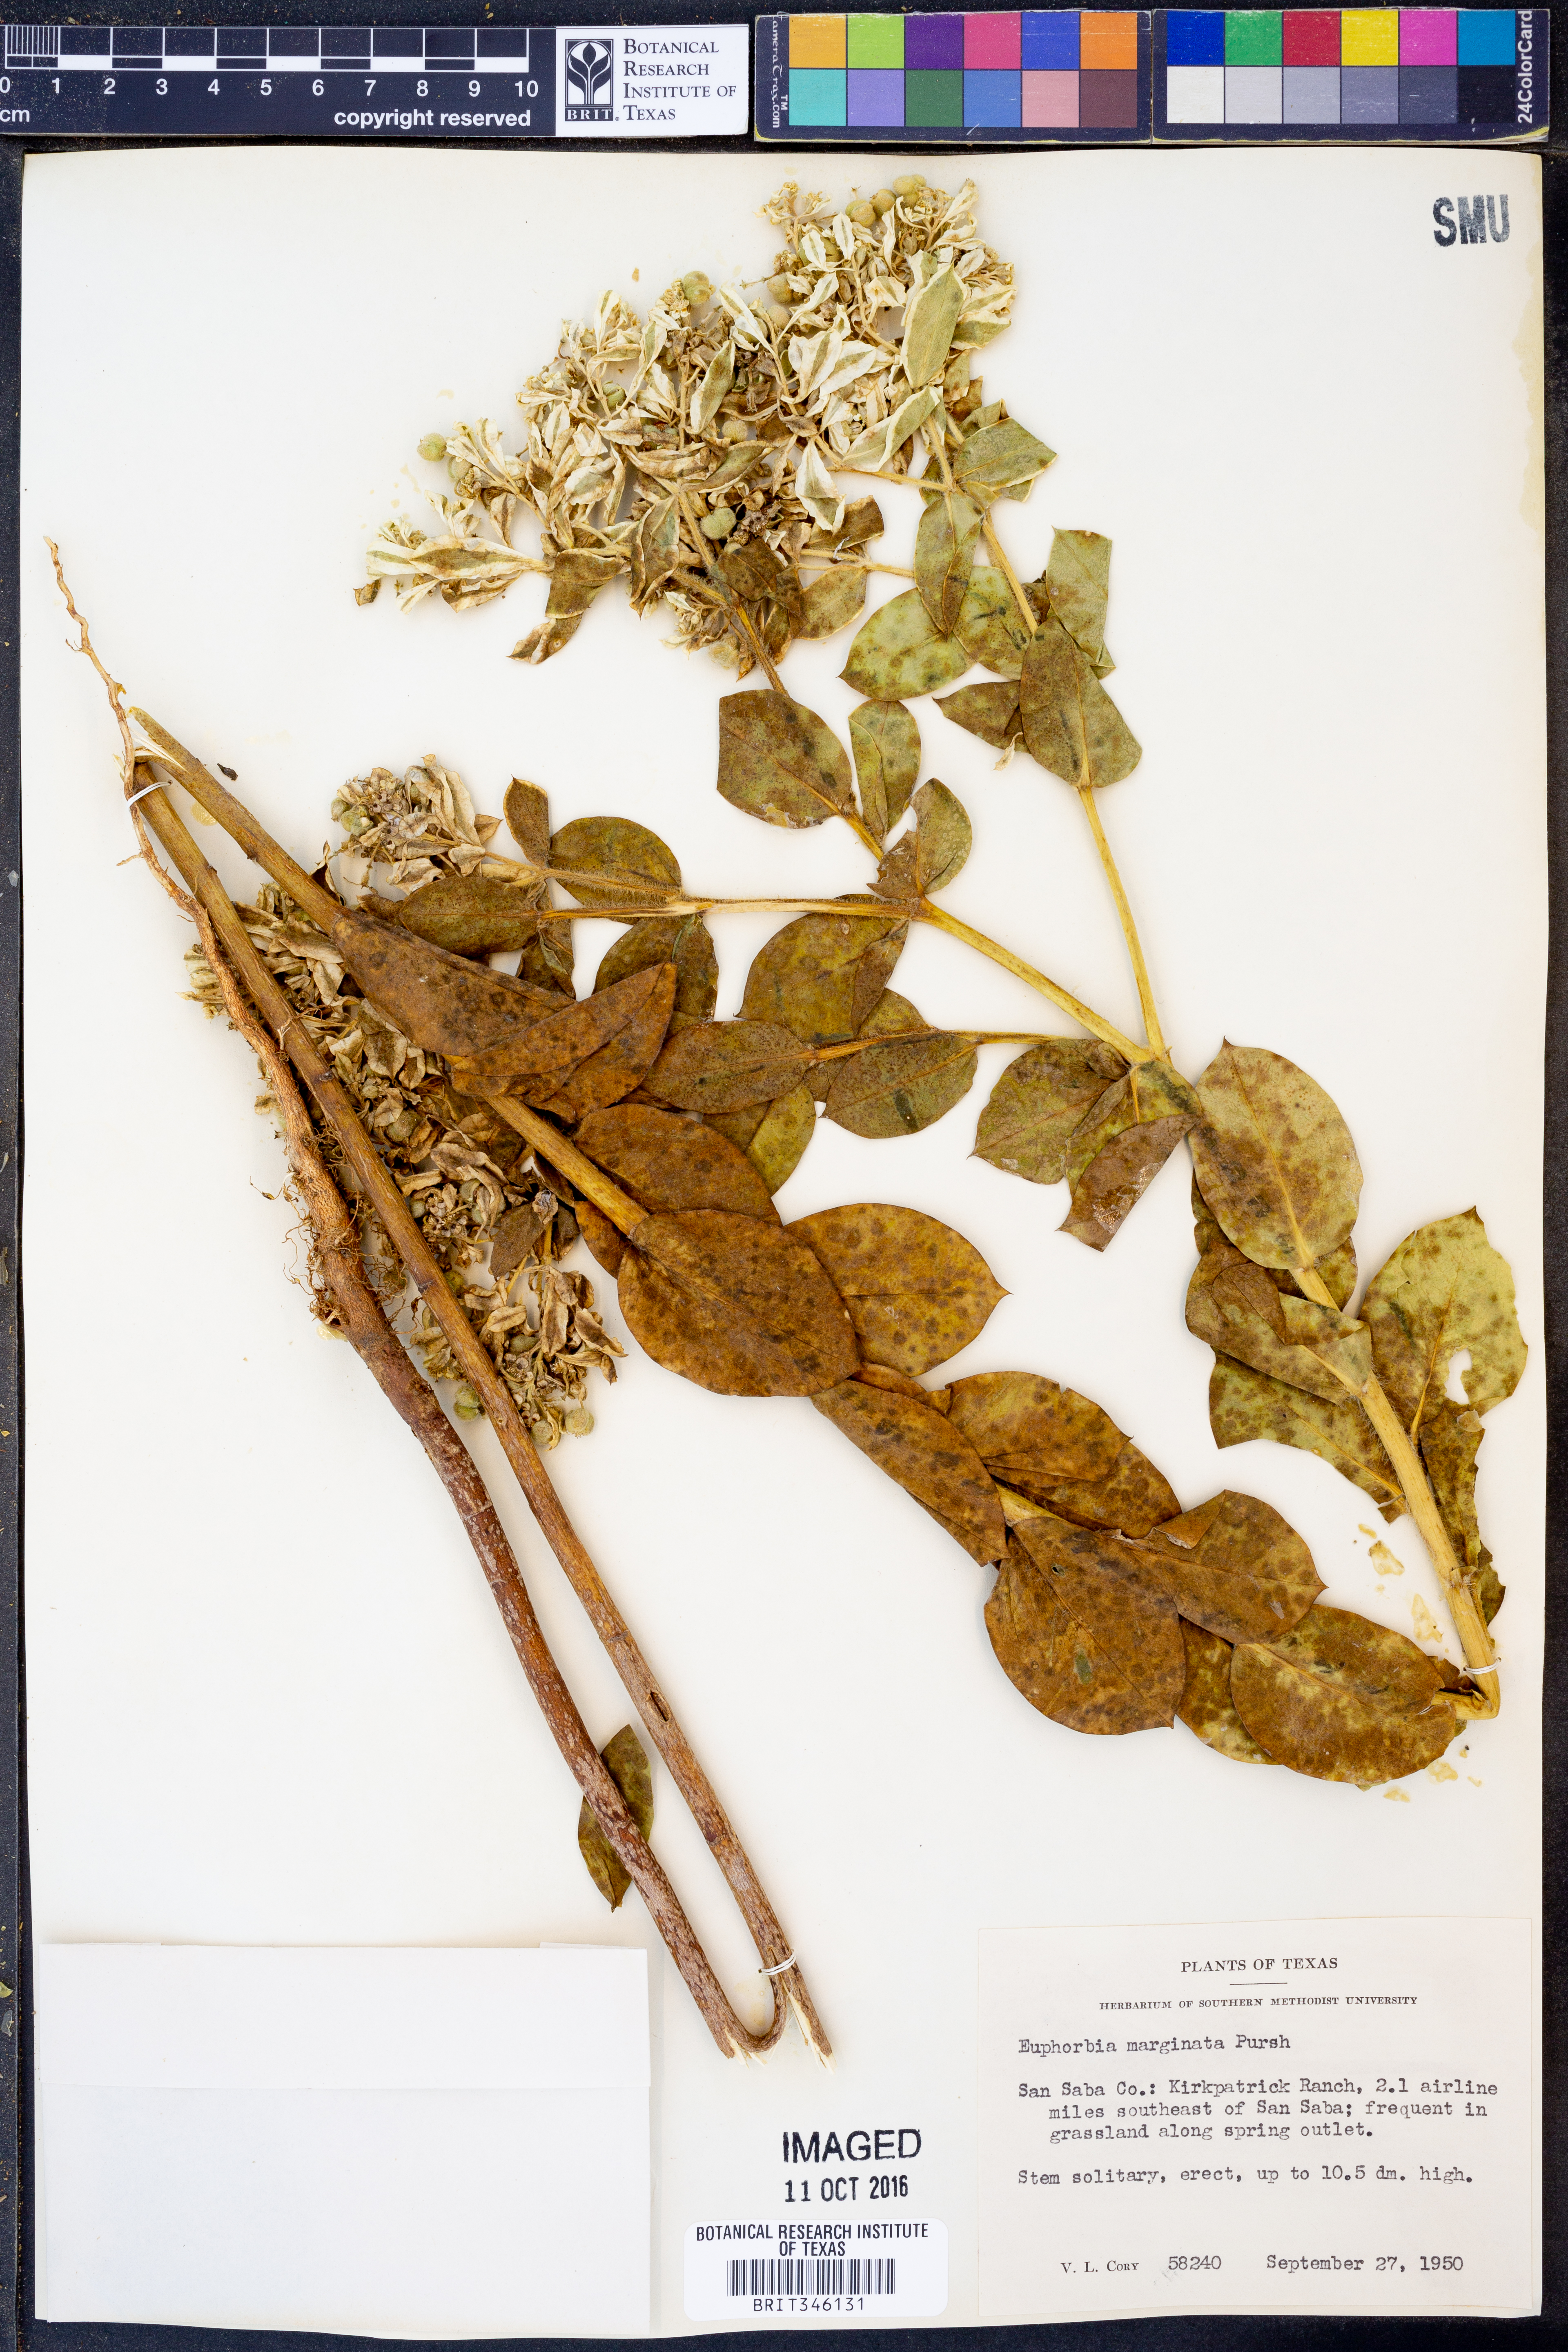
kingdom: Plantae
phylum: Tracheophyta
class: Magnoliopsida
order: Malpighiales
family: Euphorbiaceae
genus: Euphorbia
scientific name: Euphorbia marginata
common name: Ghostweed
